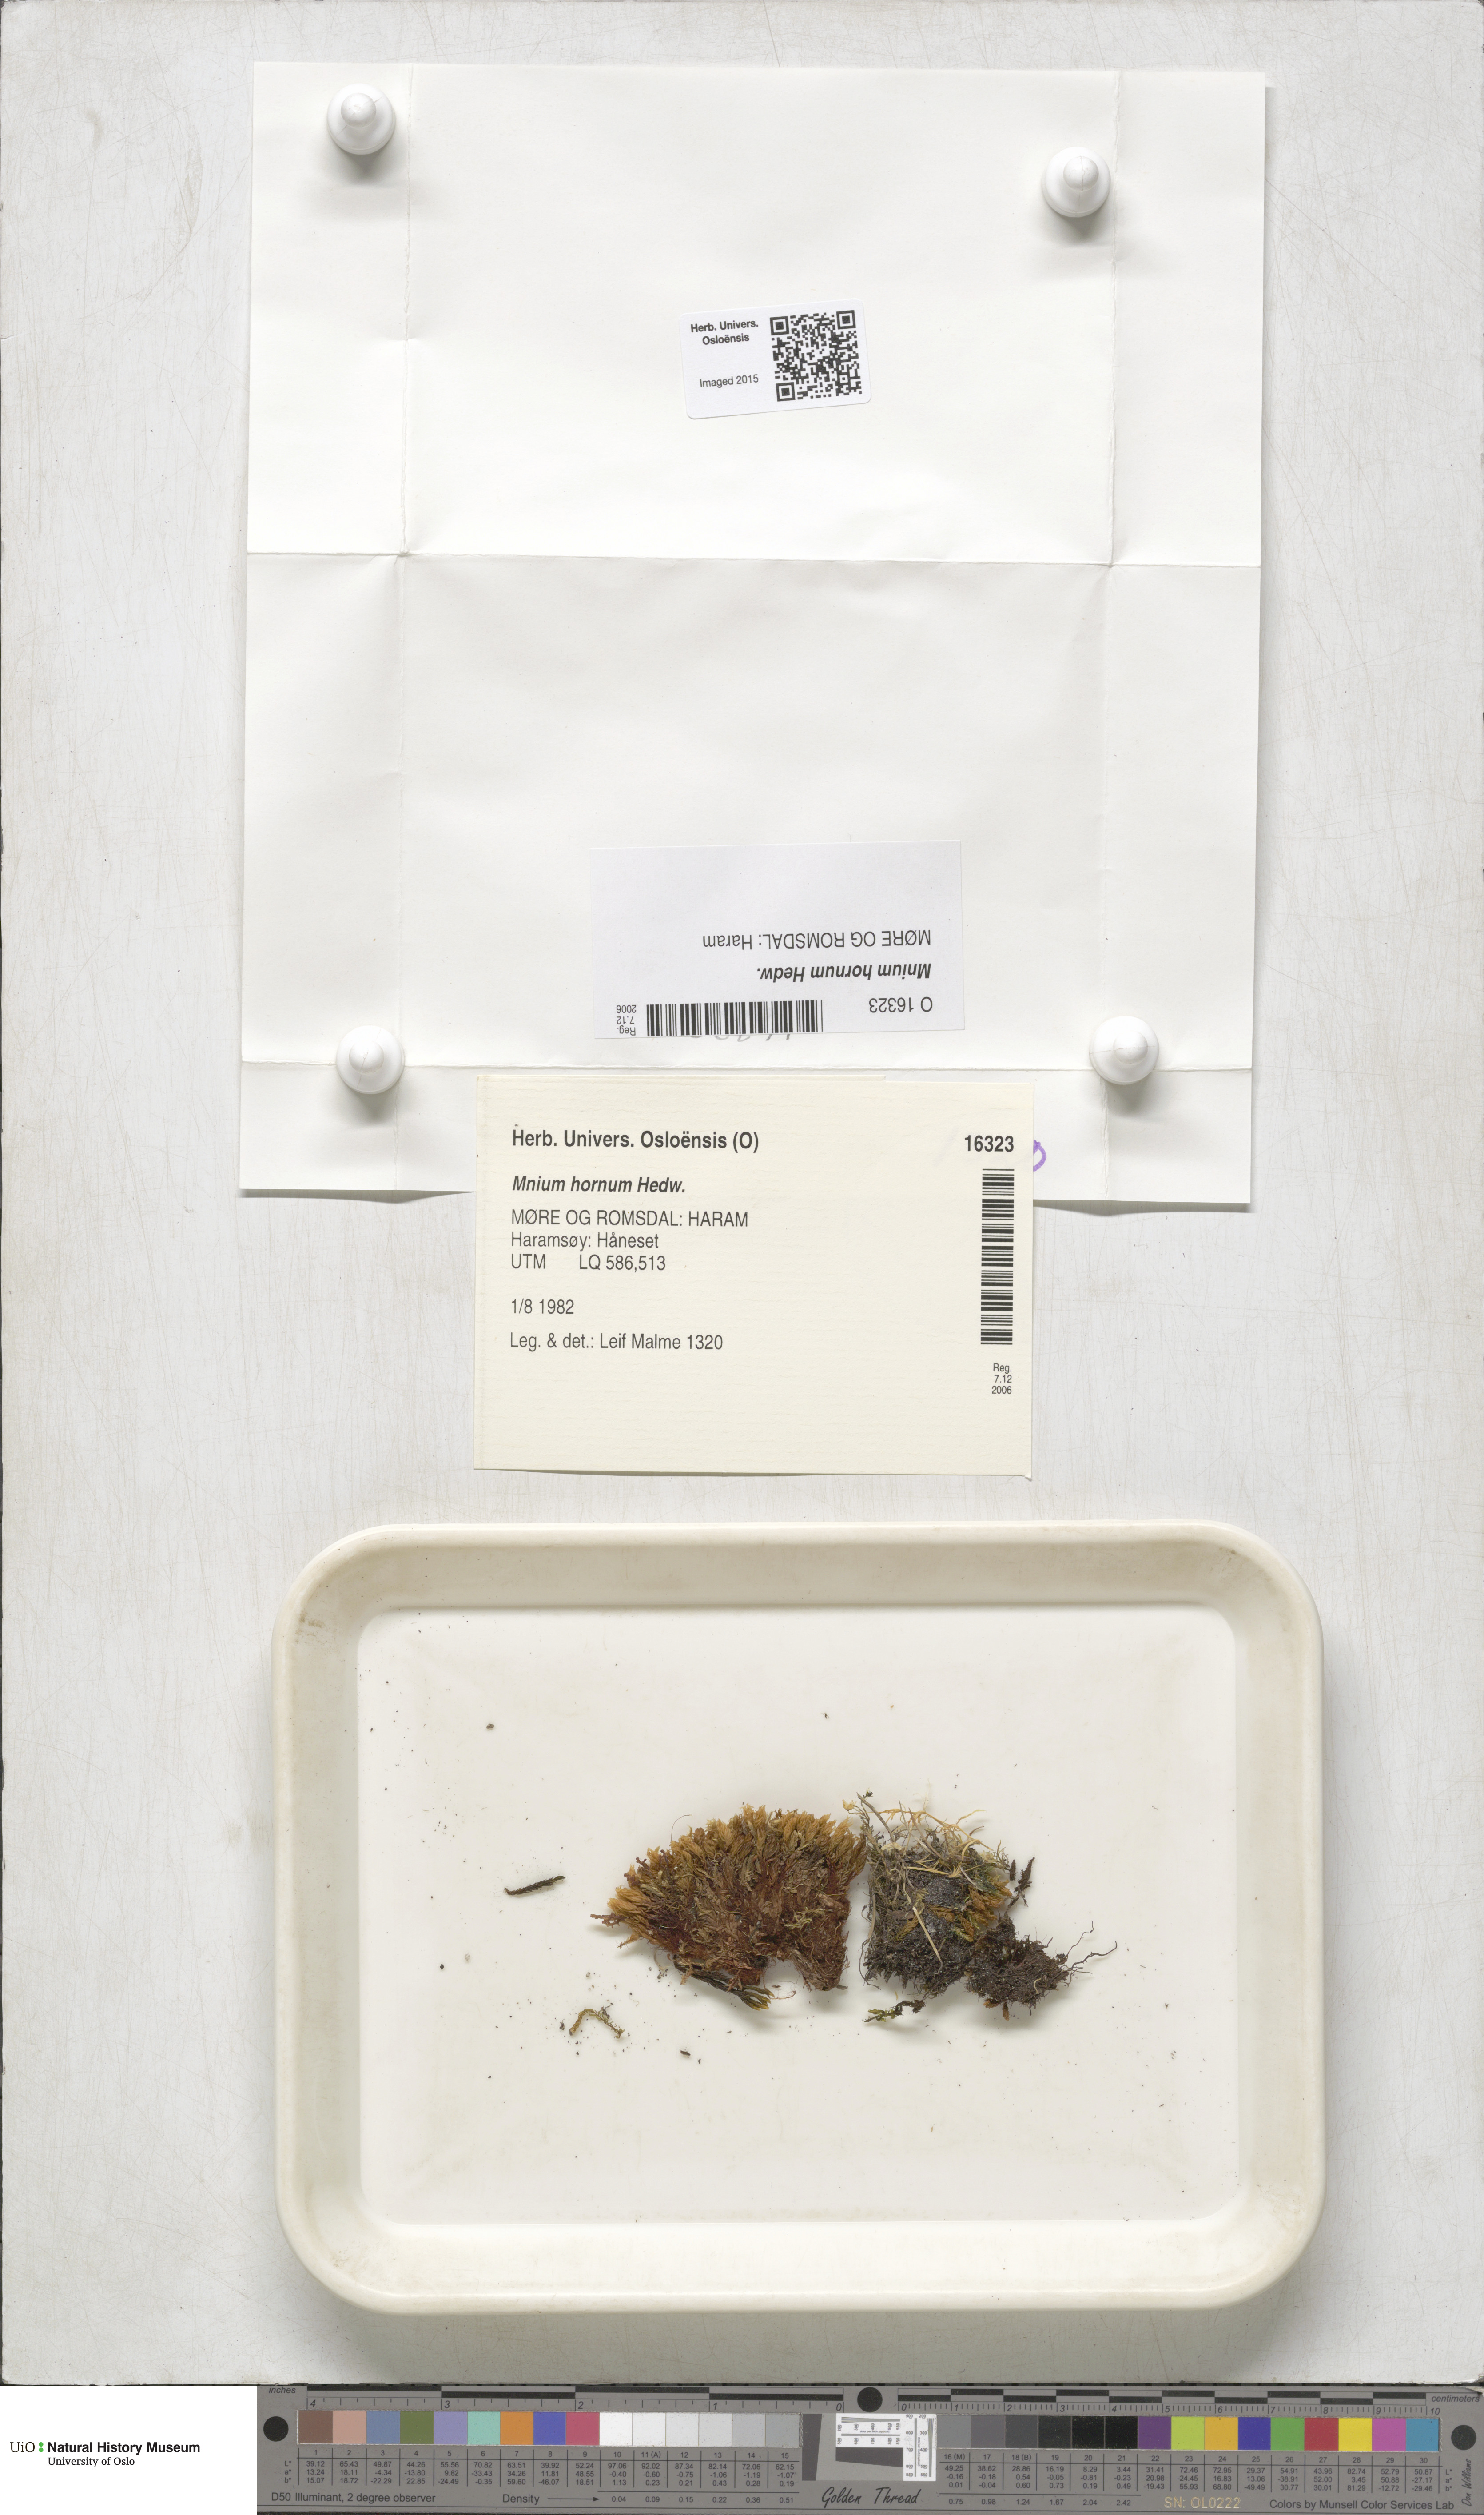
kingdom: Plantae
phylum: Bryophyta
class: Bryopsida
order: Bryales
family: Mniaceae
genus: Mnium
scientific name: Mnium hornum
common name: Swan's-neck leafy moss
